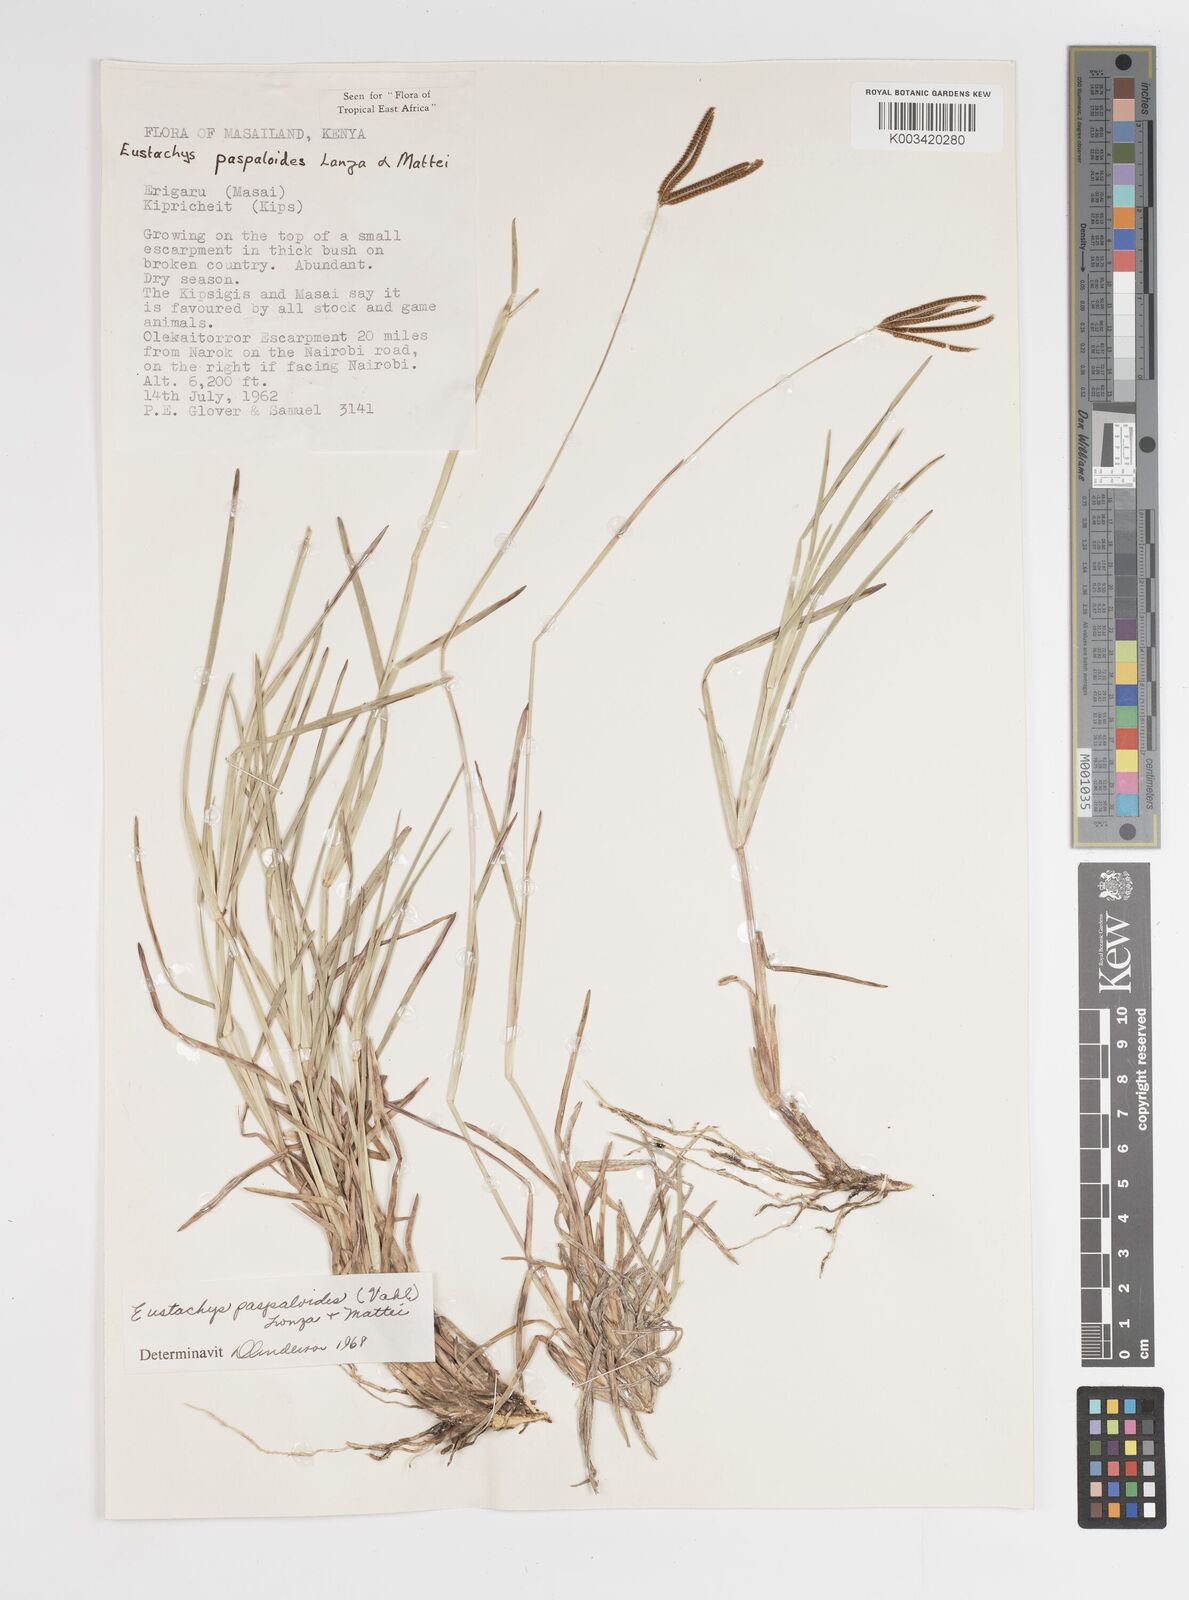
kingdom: Plantae
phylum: Tracheophyta
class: Liliopsida
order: Poales
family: Poaceae
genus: Eustachys
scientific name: Eustachys paspaloides
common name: Caribbean fingergrass
